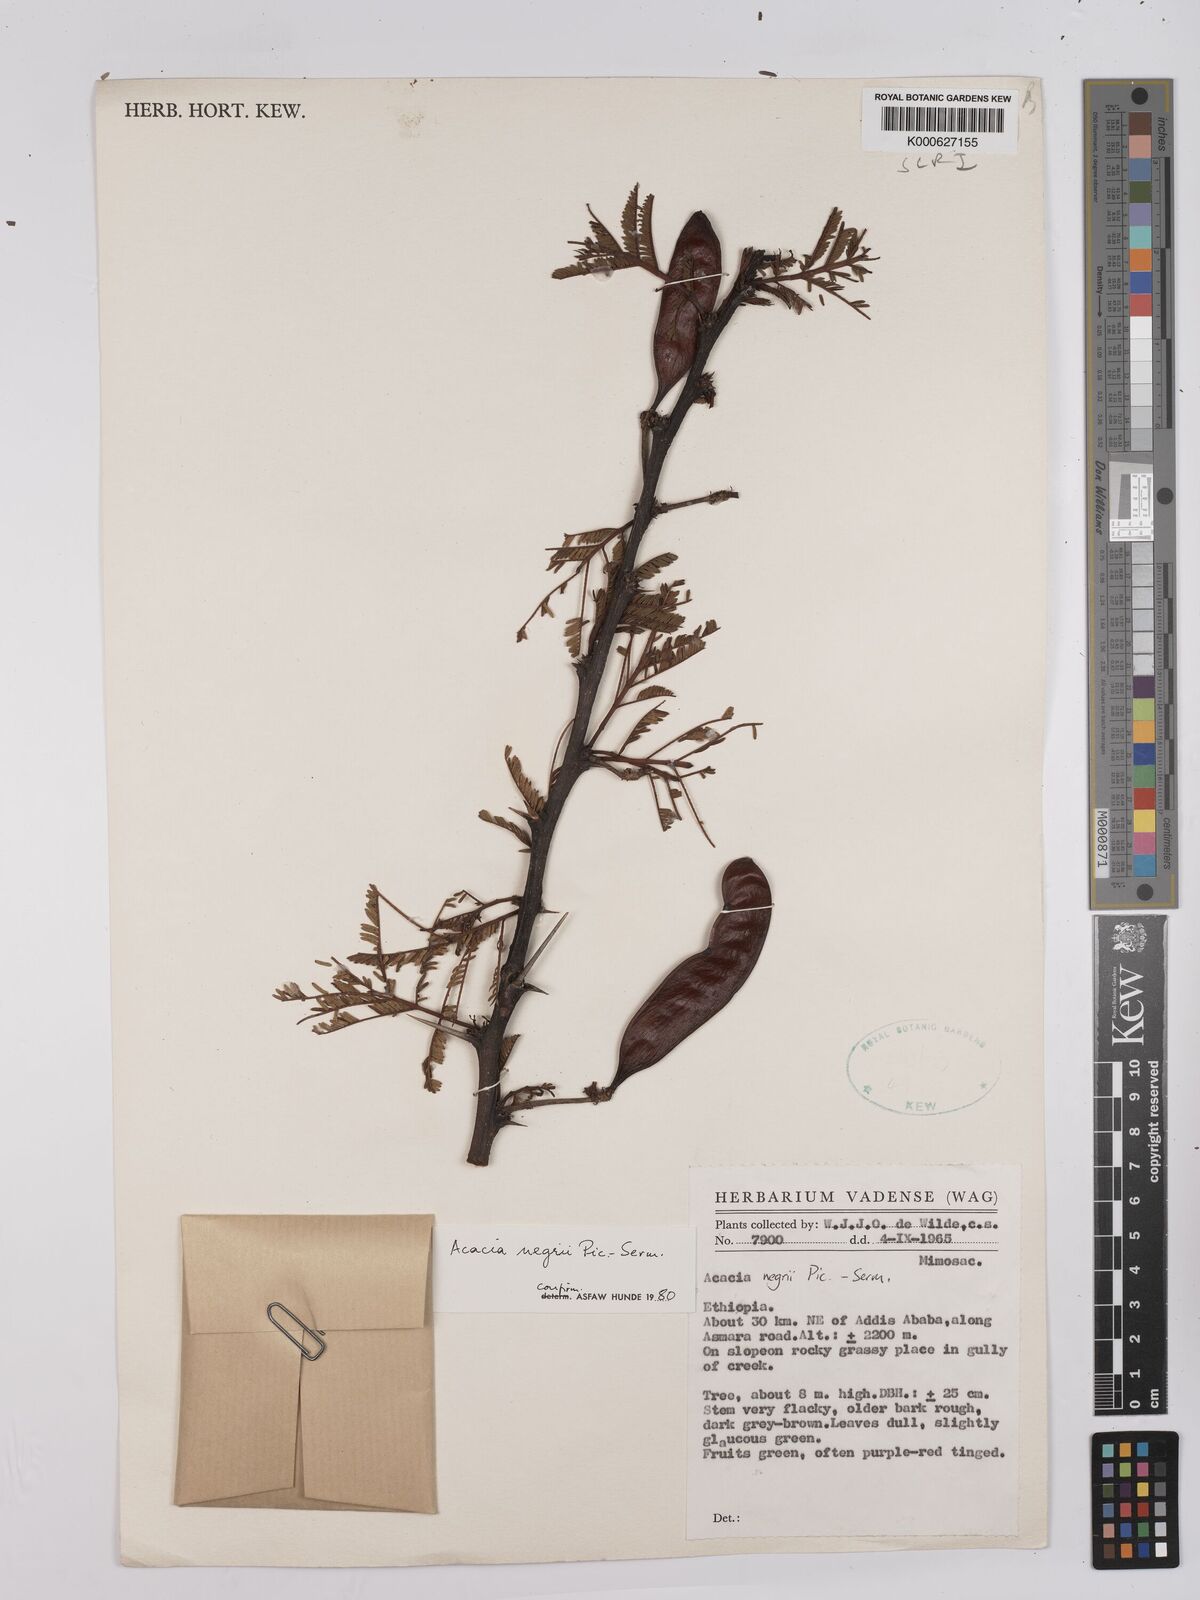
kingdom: Plantae
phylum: Tracheophyta
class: Magnoliopsida
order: Fabales
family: Fabaceae
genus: Vachellia
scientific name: Vachellia negrii
